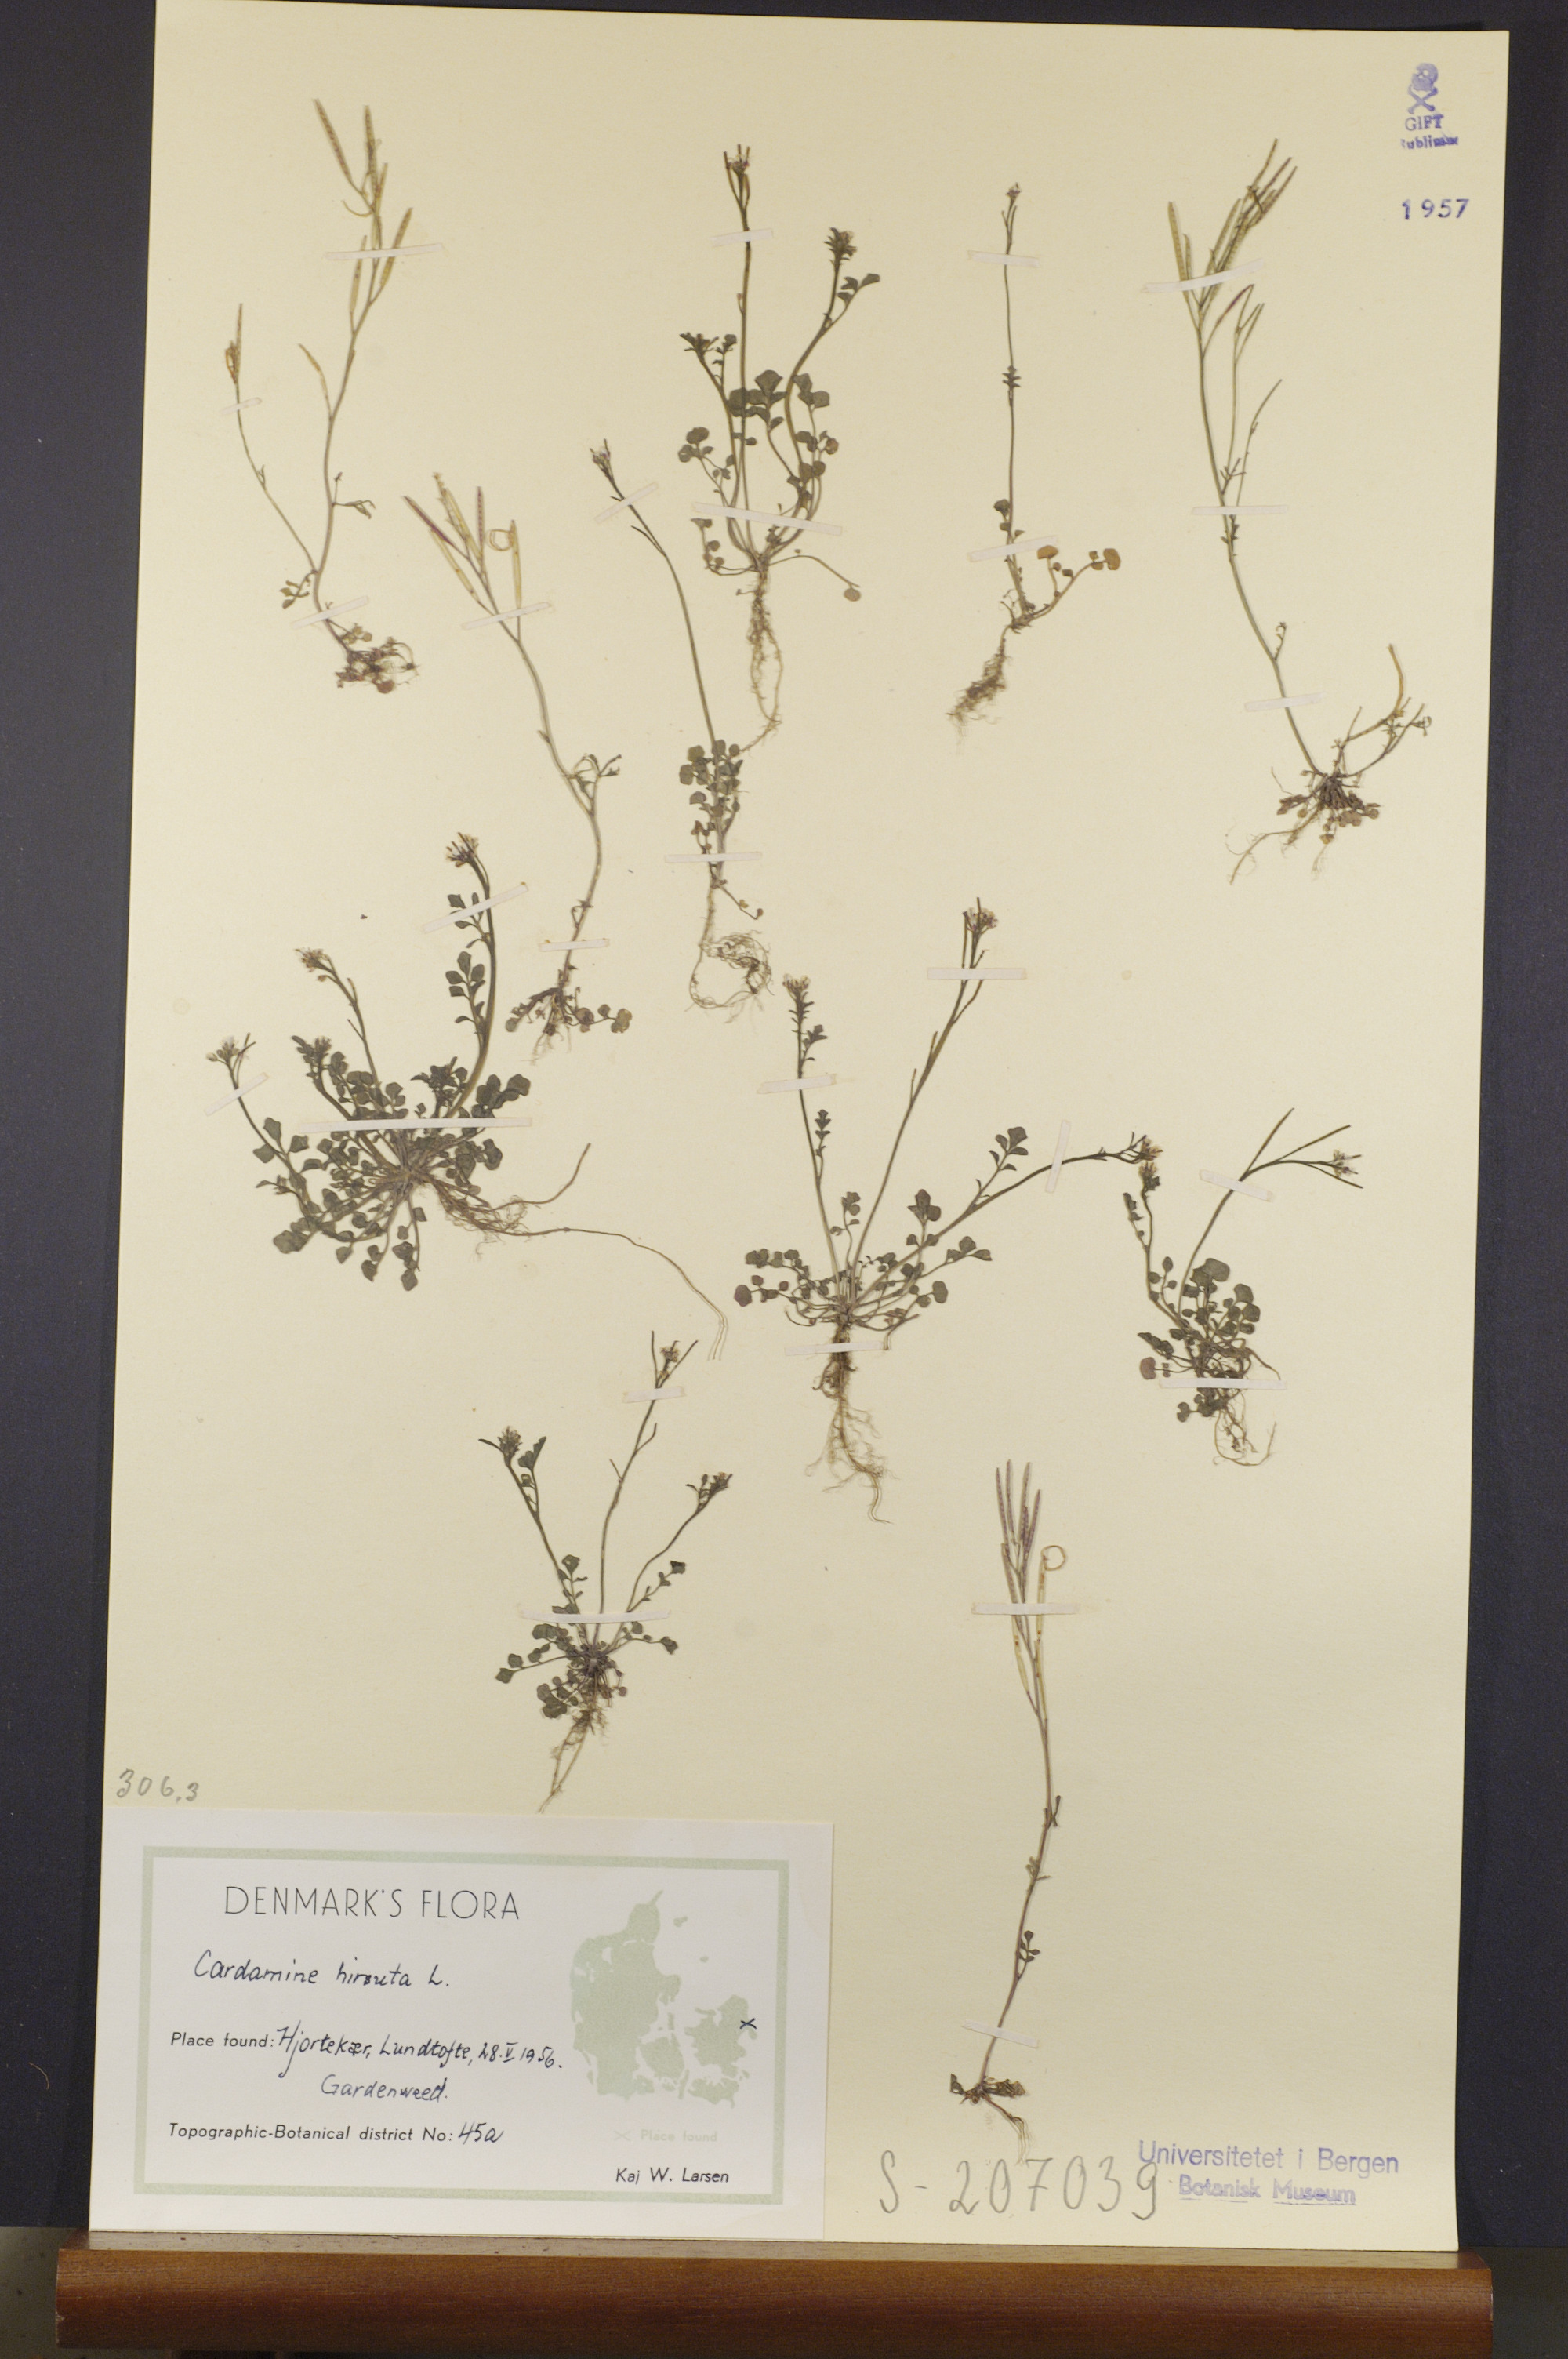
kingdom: Plantae
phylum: Tracheophyta
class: Magnoliopsida
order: Brassicales
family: Brassicaceae
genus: Cardamine
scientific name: Cardamine hirsuta
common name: Hairy bittercress
